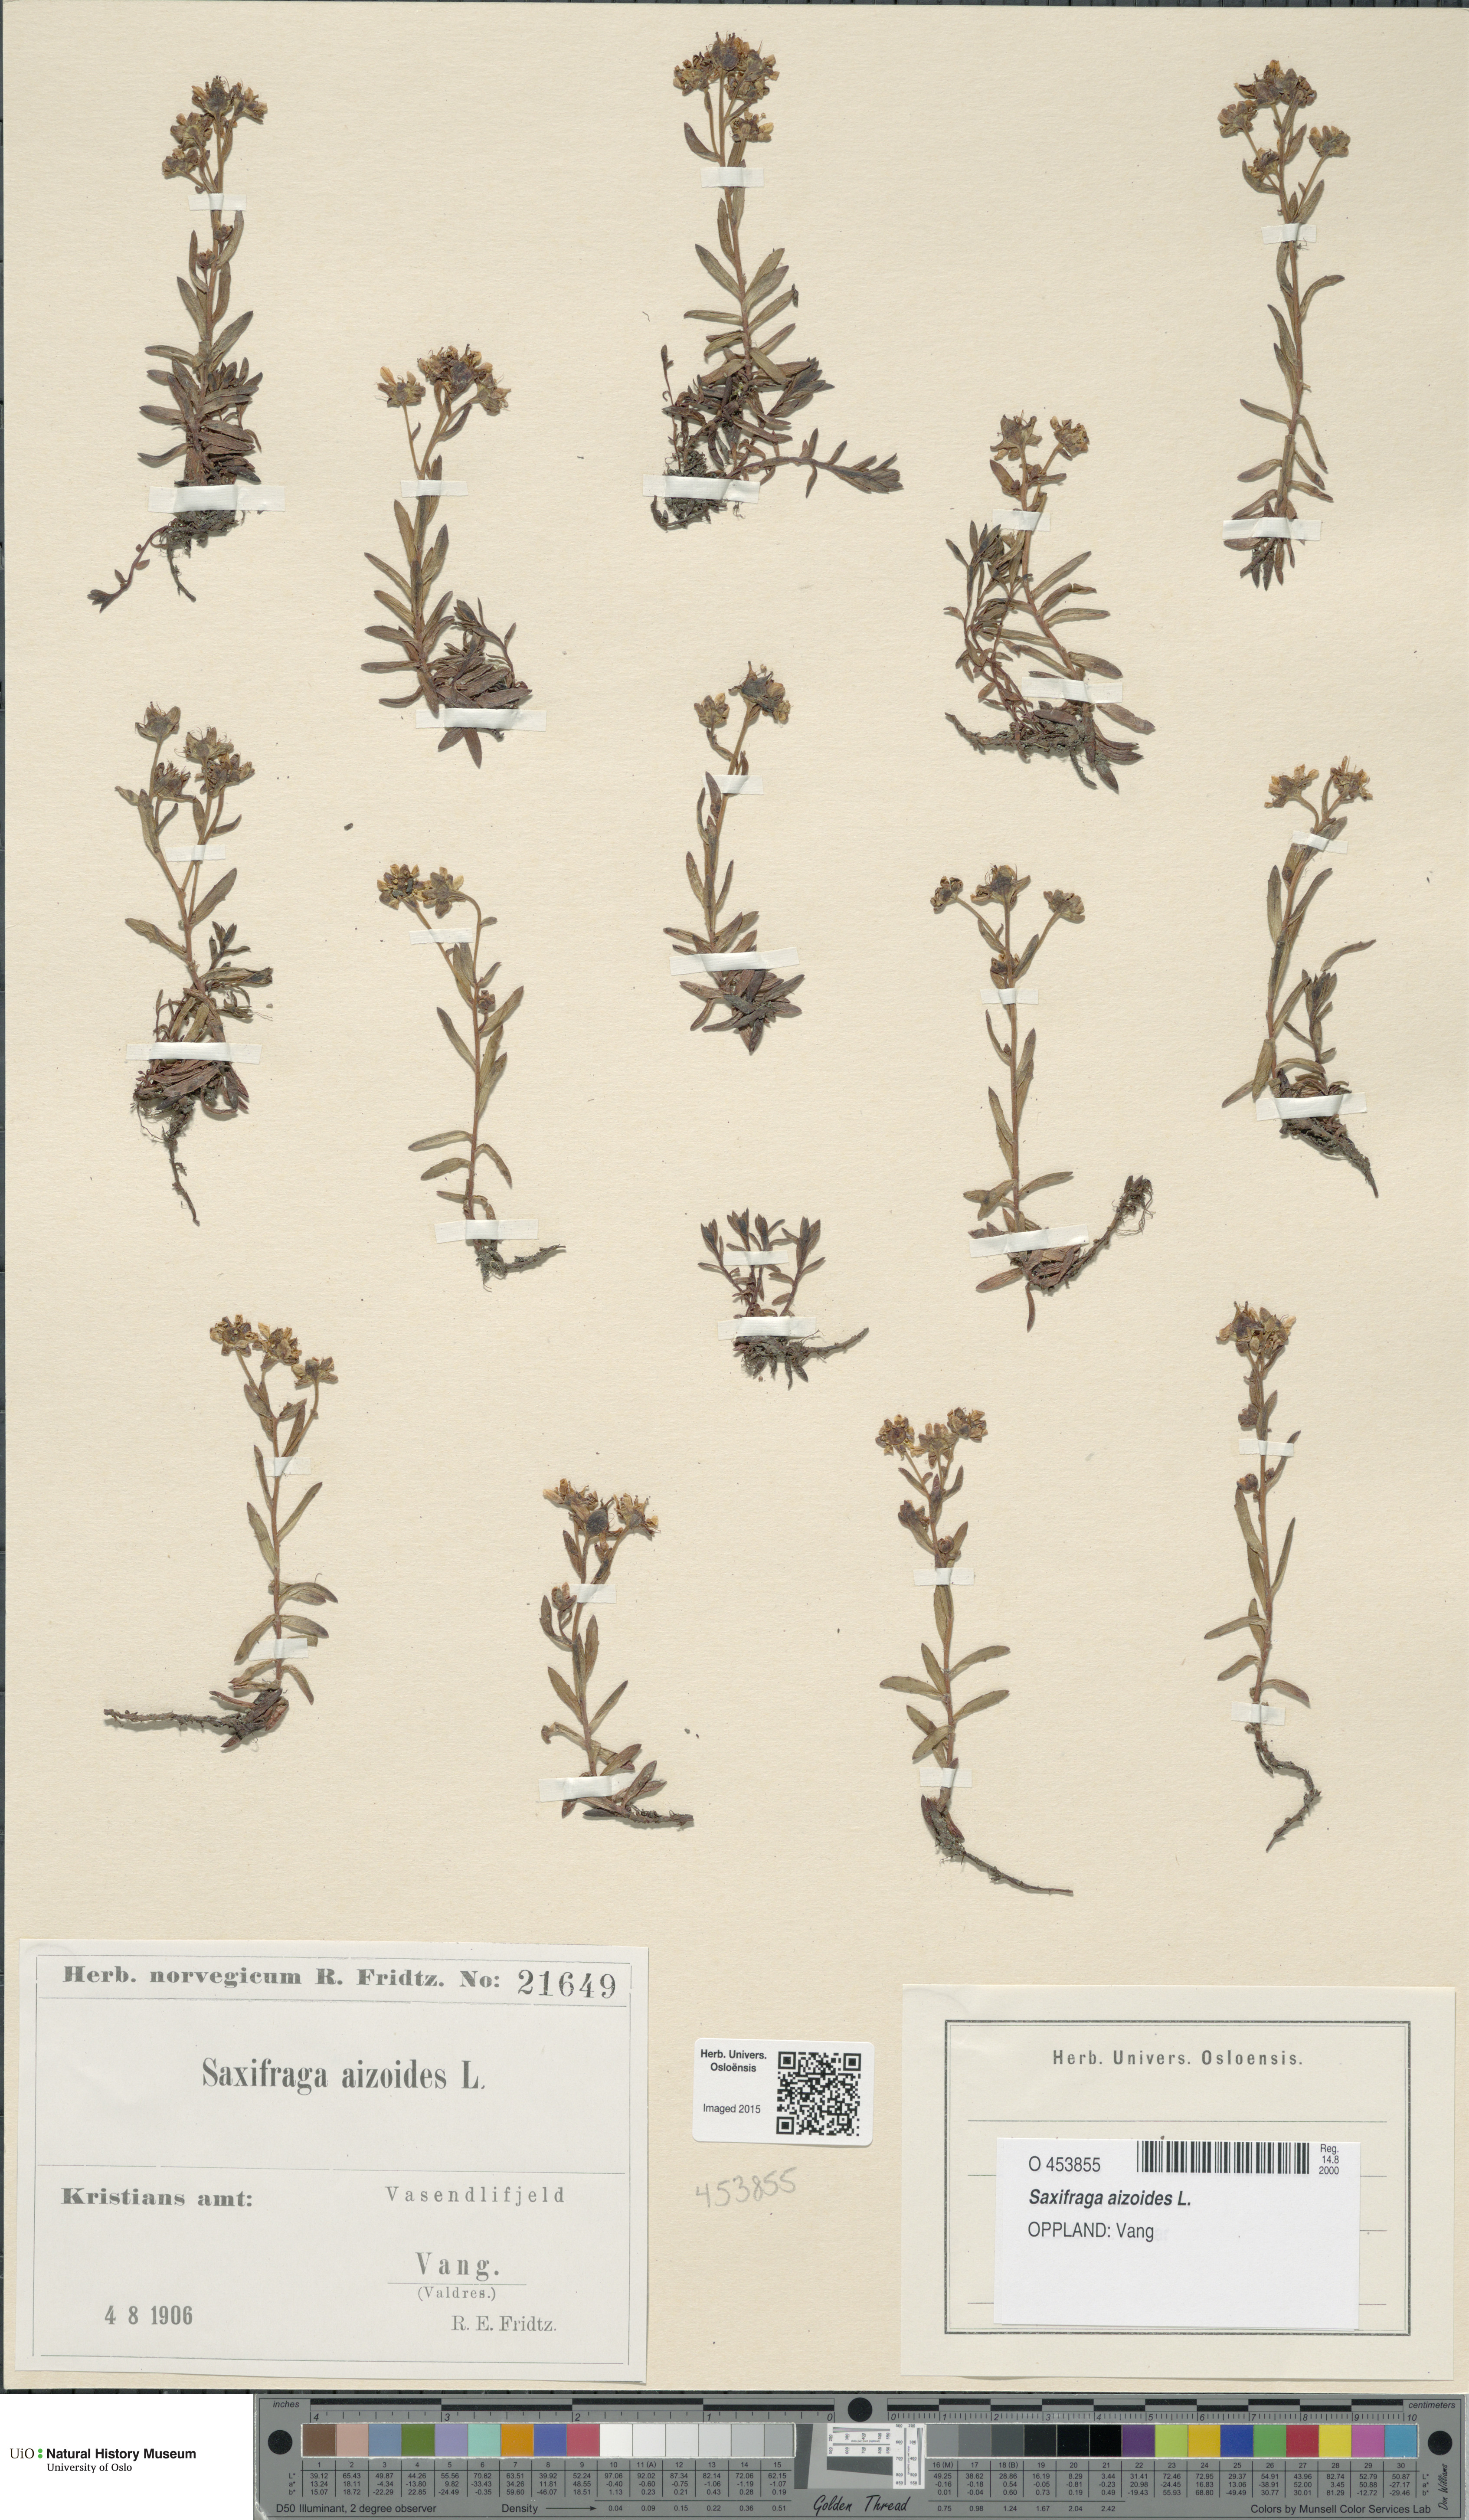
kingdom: Plantae
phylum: Tracheophyta
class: Magnoliopsida
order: Saxifragales
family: Saxifragaceae
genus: Saxifraga
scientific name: Saxifraga aizoides
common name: Yellow mountain saxifrage
